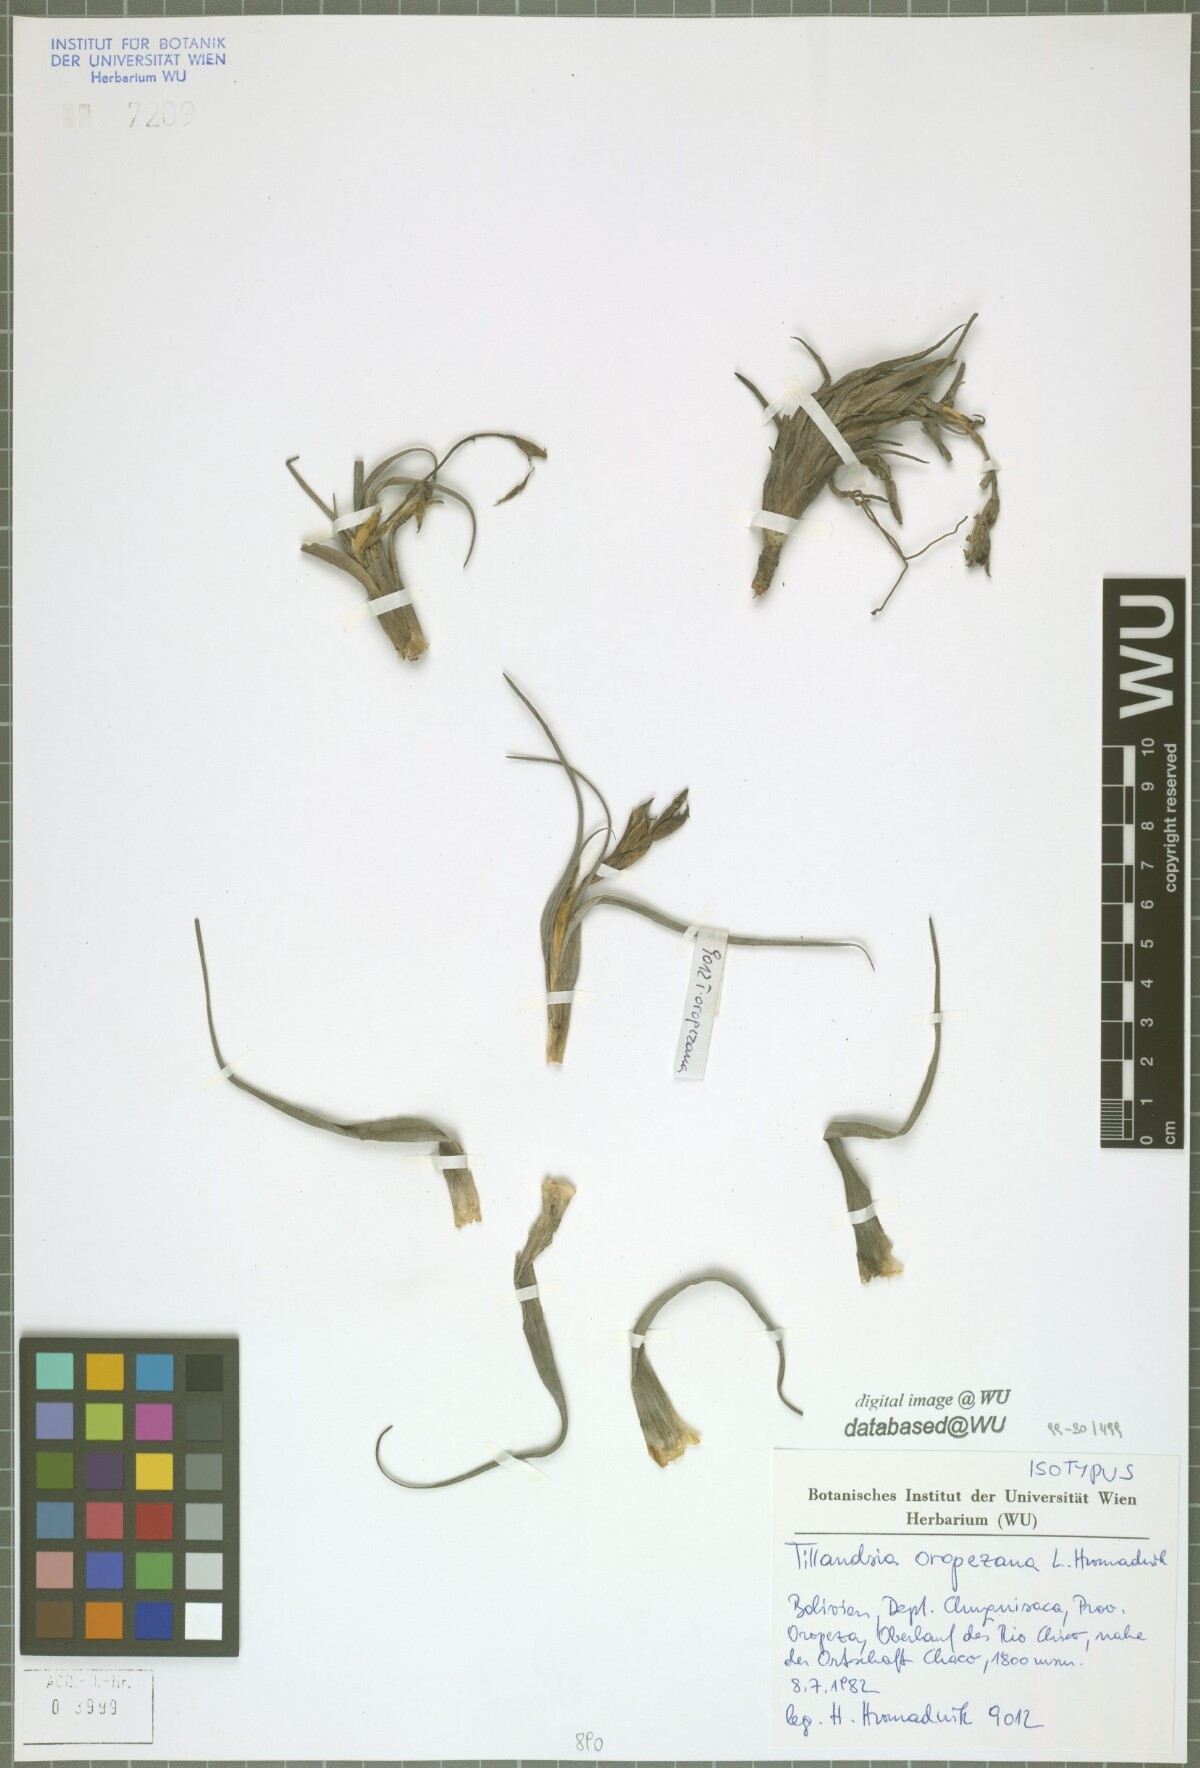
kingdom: Plantae
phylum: Tracheophyta
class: Liliopsida
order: Poales
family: Bromeliaceae
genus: Tillandsia
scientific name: Tillandsia oropezana
